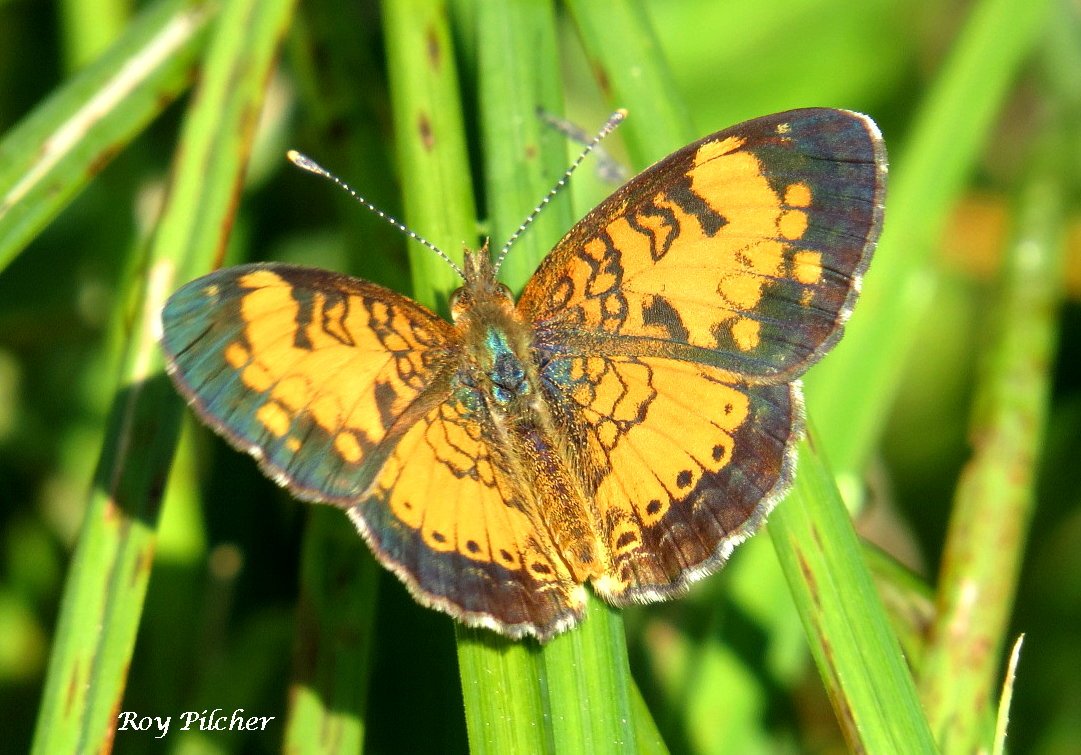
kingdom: Animalia
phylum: Arthropoda
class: Insecta
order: Lepidoptera
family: Nymphalidae
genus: Phyciodes
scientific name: Phyciodes tharos
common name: Northern Crescent
